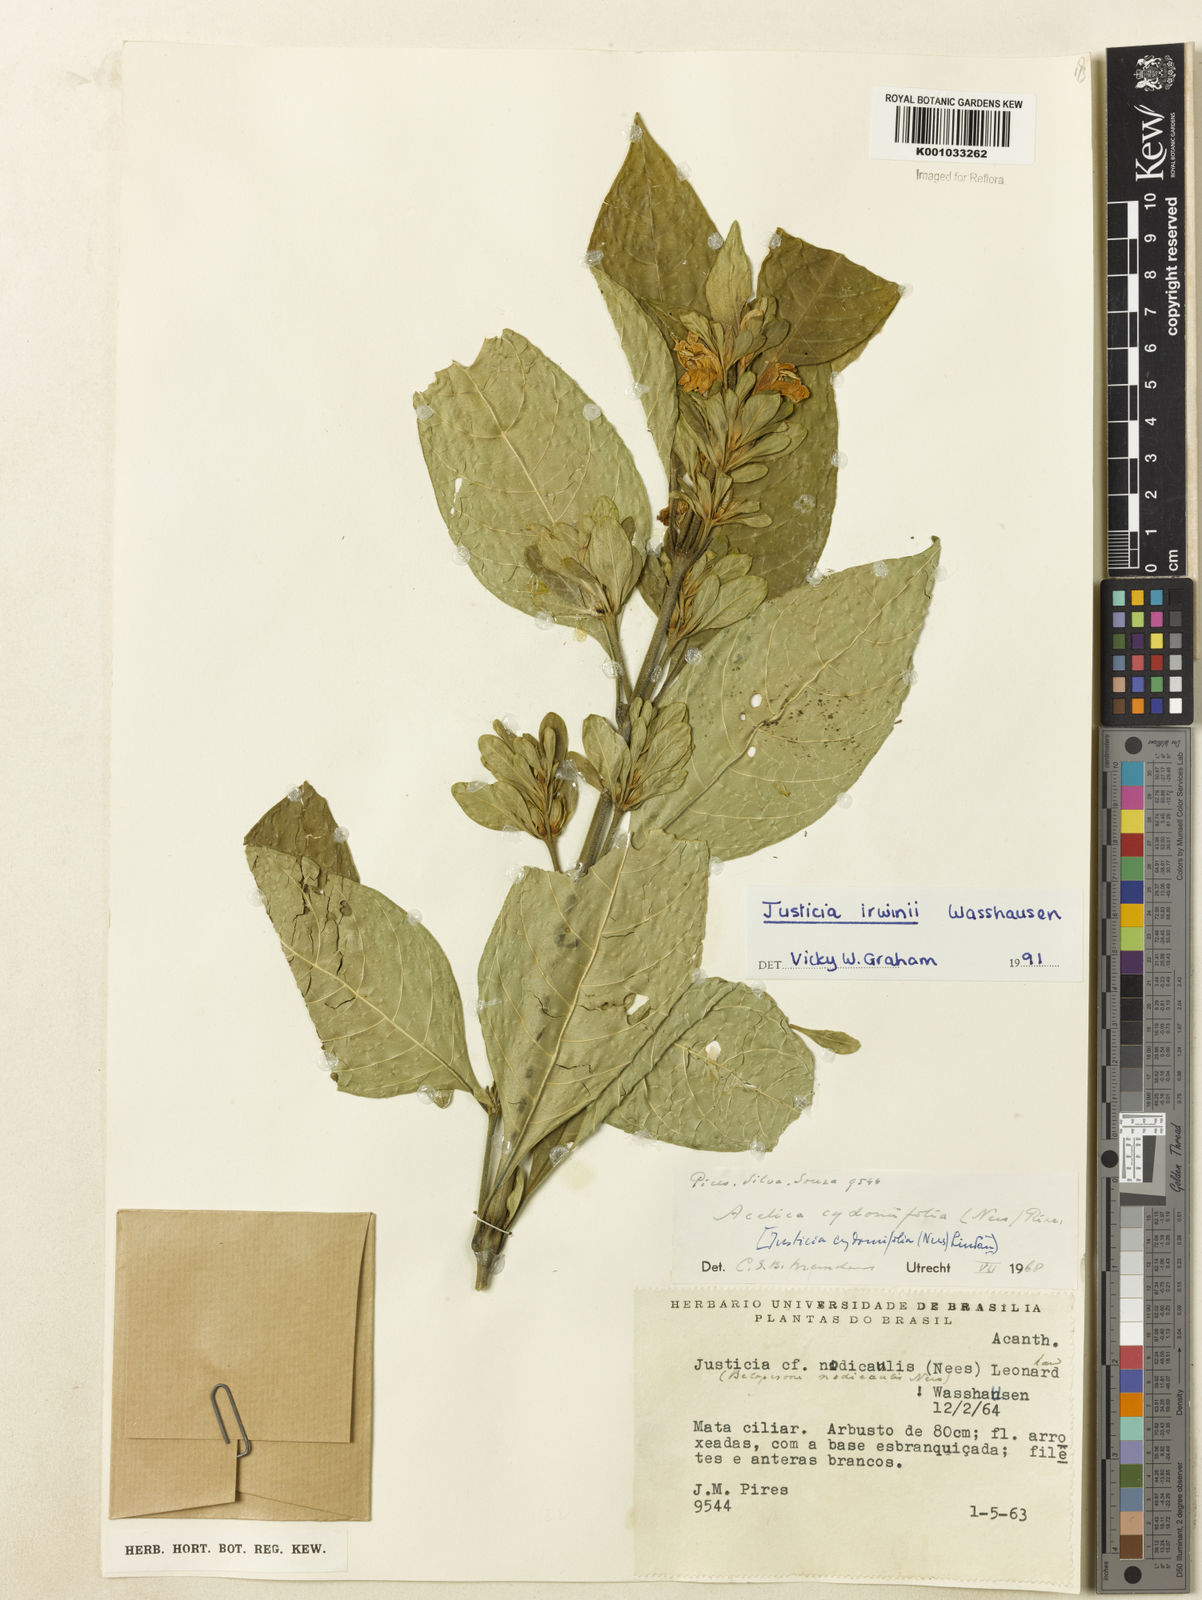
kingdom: Plantae
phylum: Tracheophyta
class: Magnoliopsida
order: Lamiales
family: Acanthaceae
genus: Justicia
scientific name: Justicia irwinii
